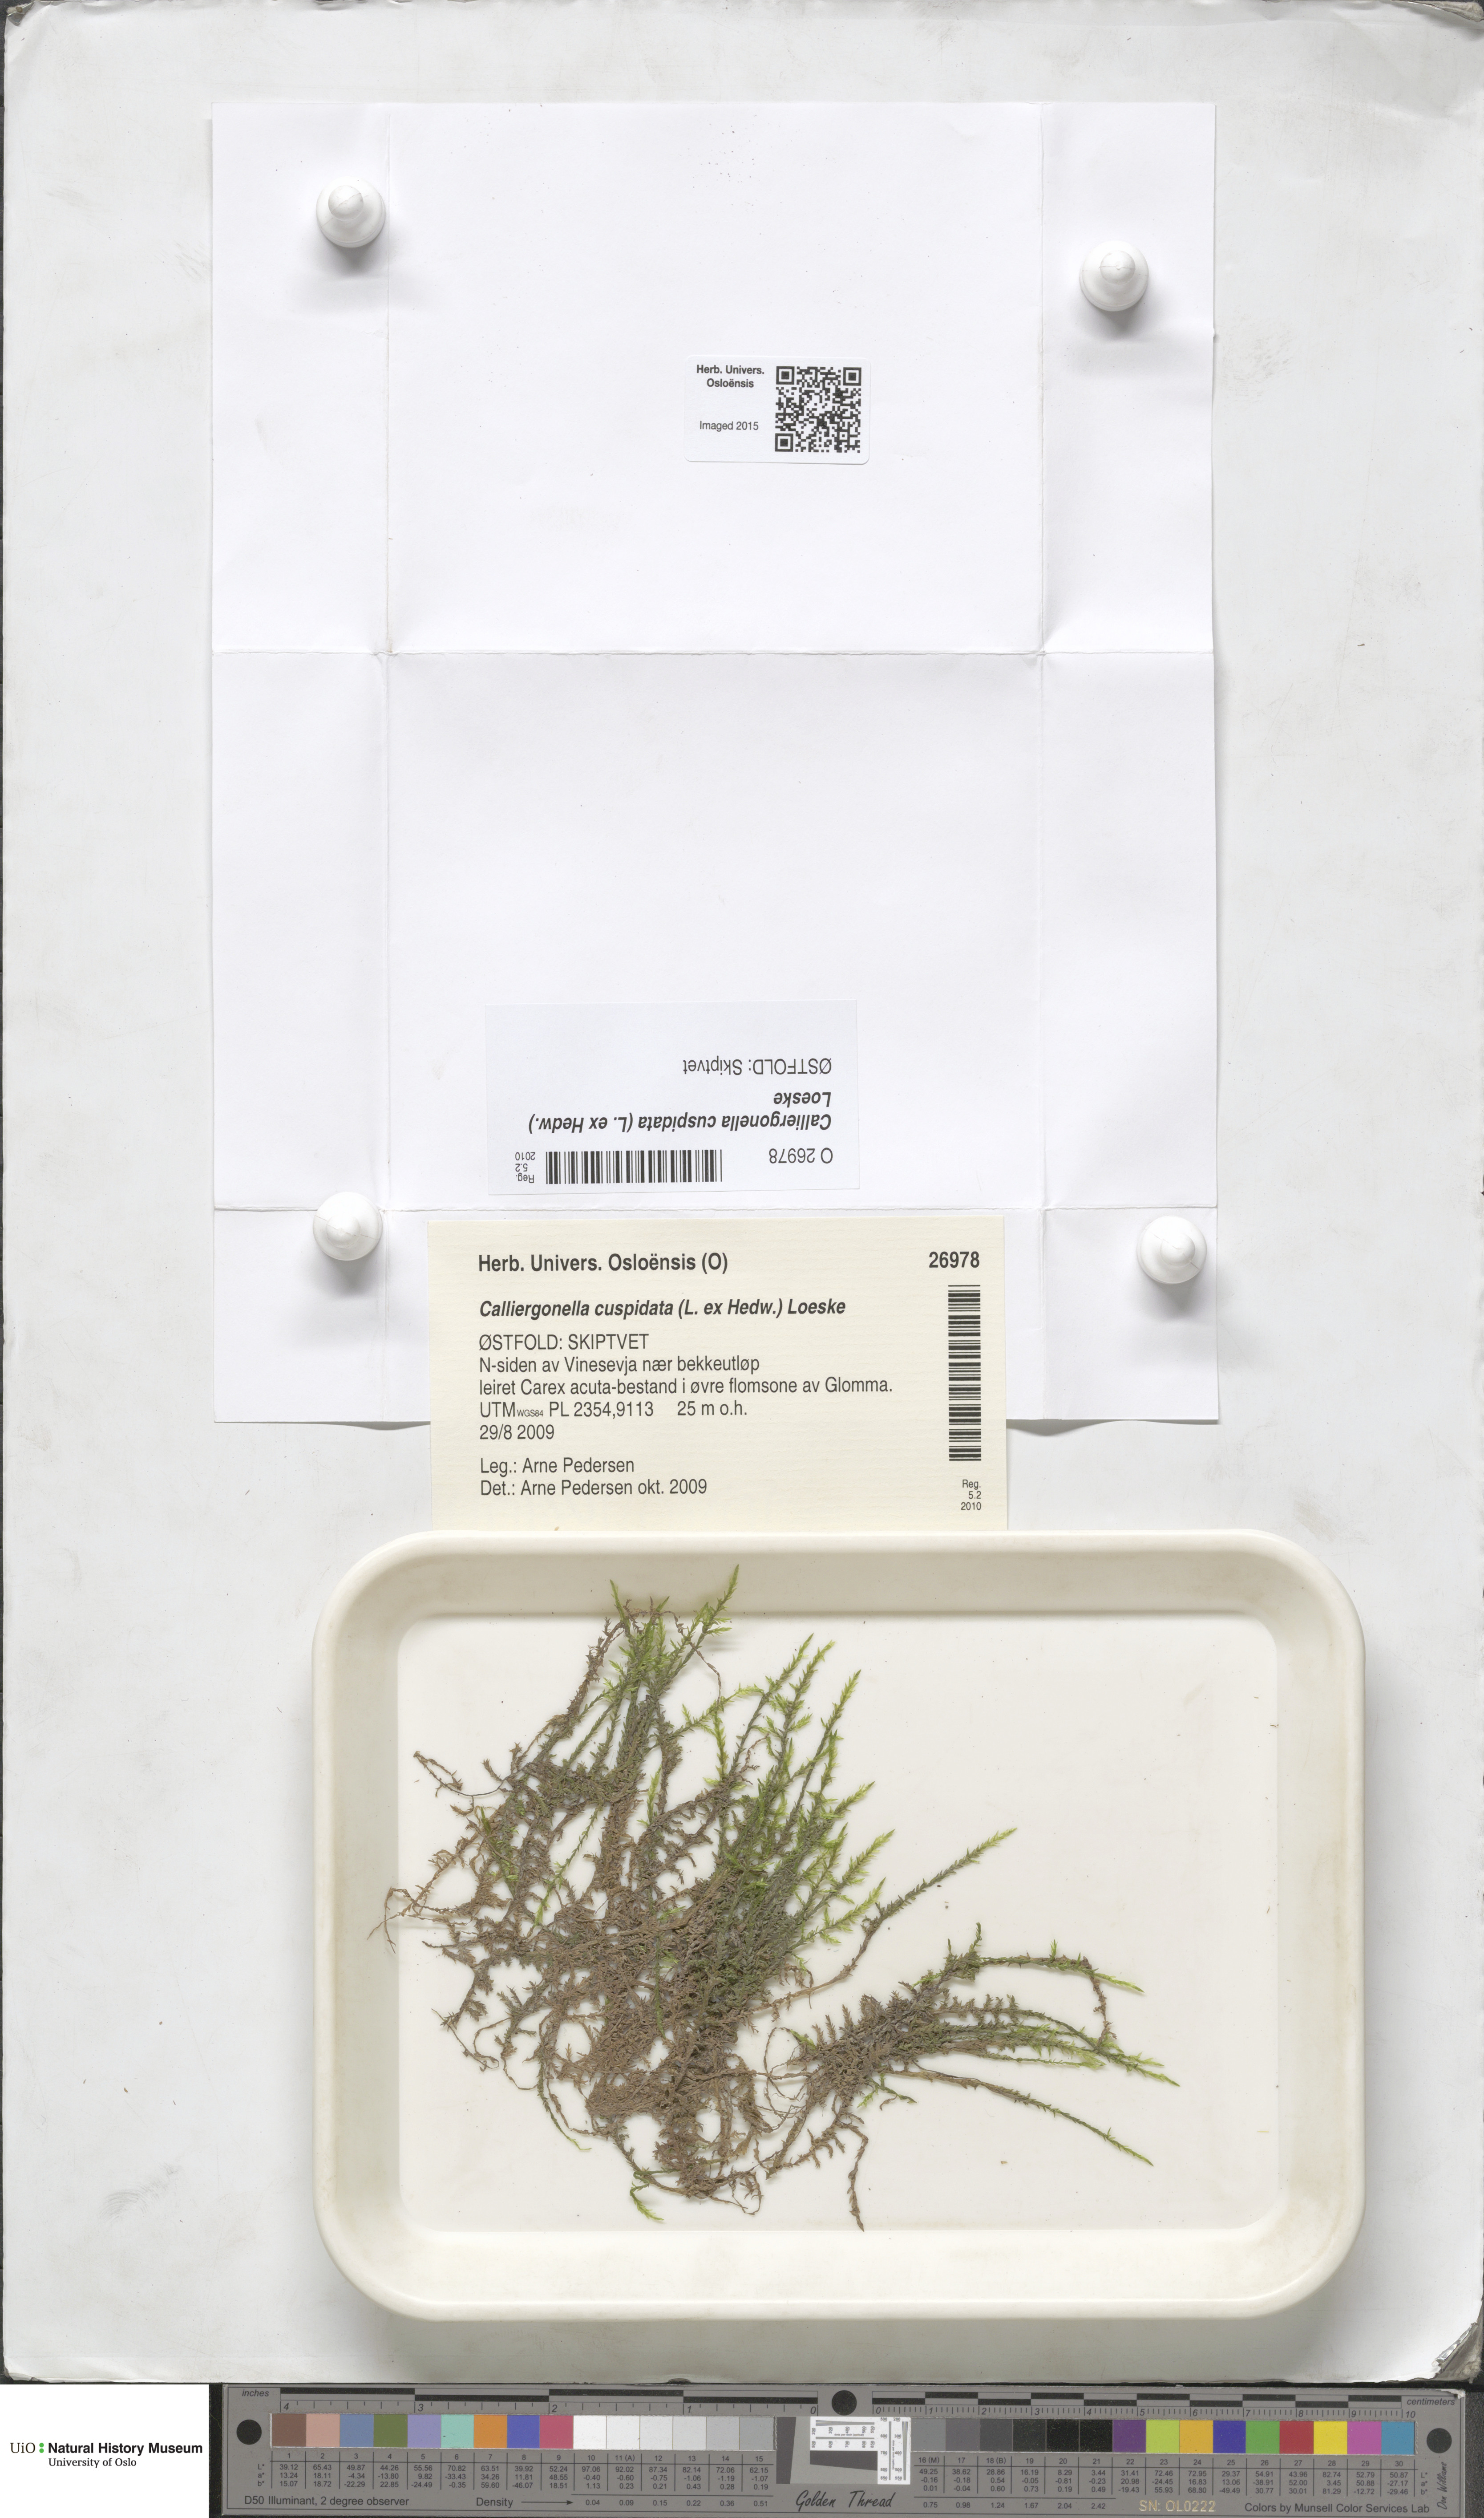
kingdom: Plantae
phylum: Bryophyta
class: Bryopsida
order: Hypnales
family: Pylaisiaceae
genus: Calliergonella
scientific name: Calliergonella cuspidata
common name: Common large wetland moss
